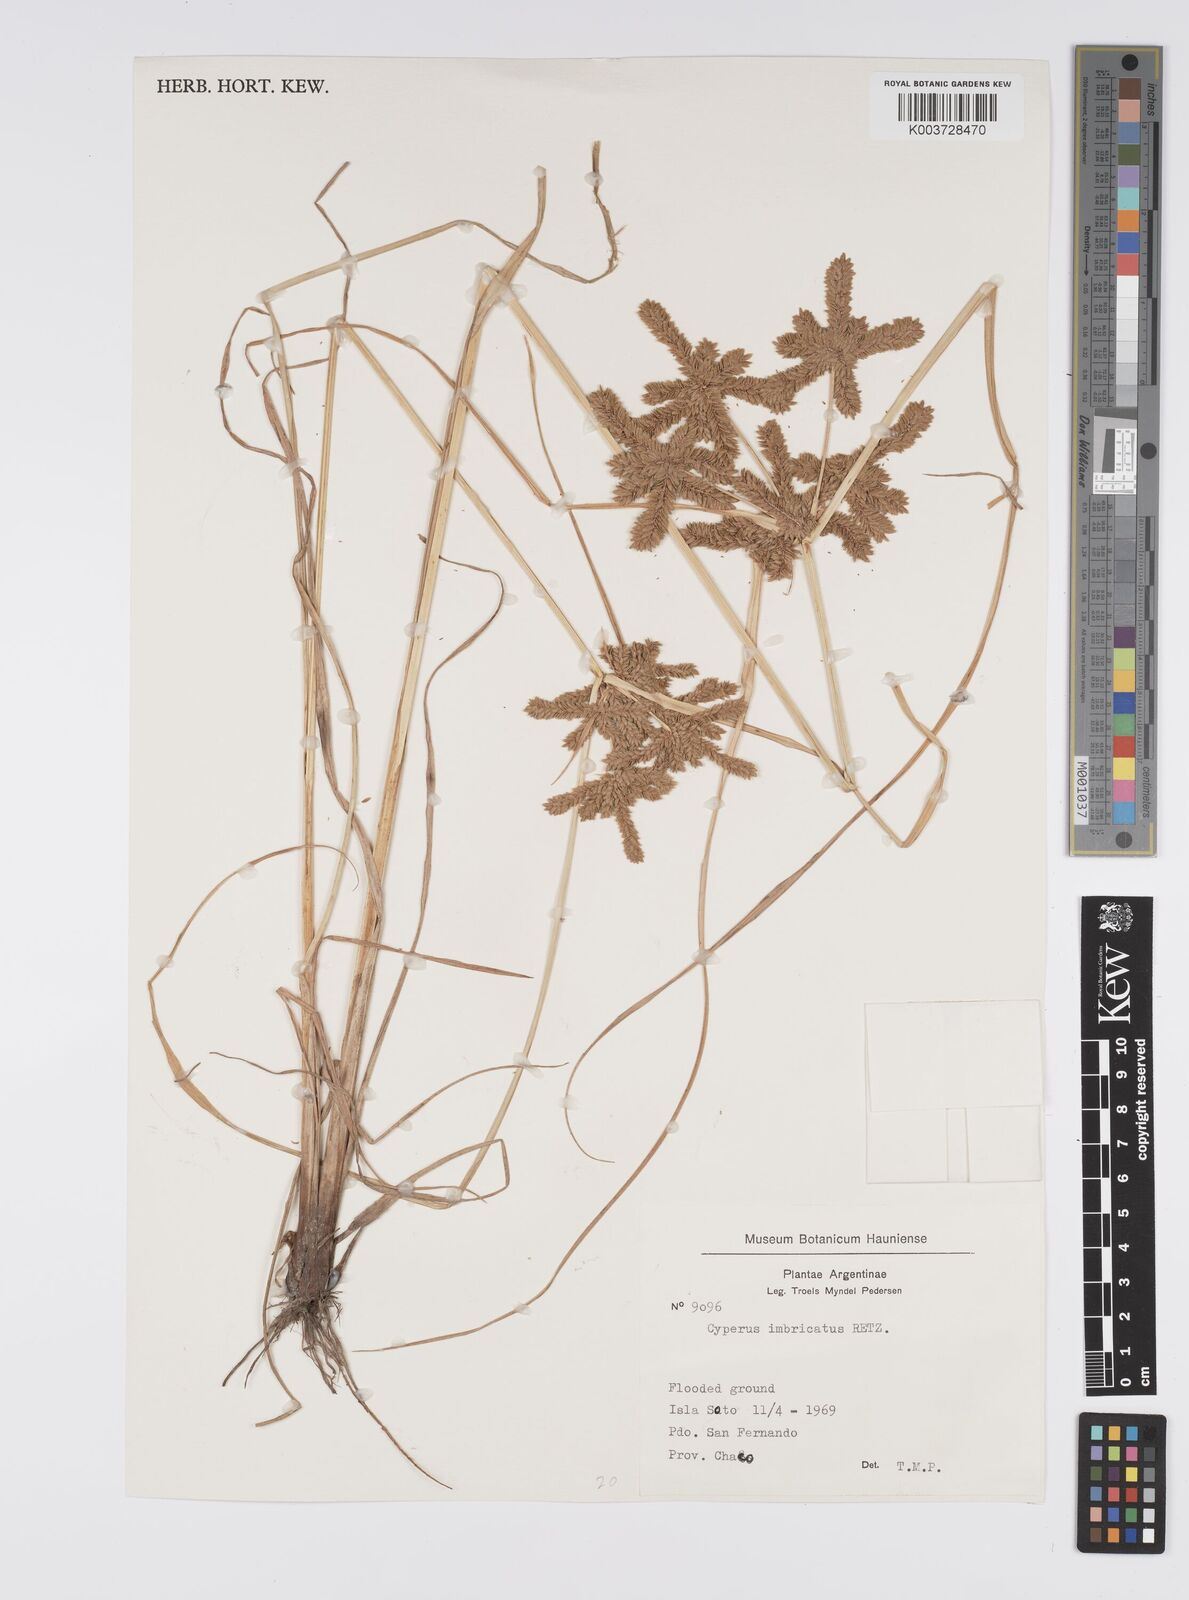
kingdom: Plantae
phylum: Tracheophyta
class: Liliopsida
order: Poales
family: Cyperaceae
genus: Cyperus
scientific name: Cyperus imbricatus
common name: Shingle flatsedge
